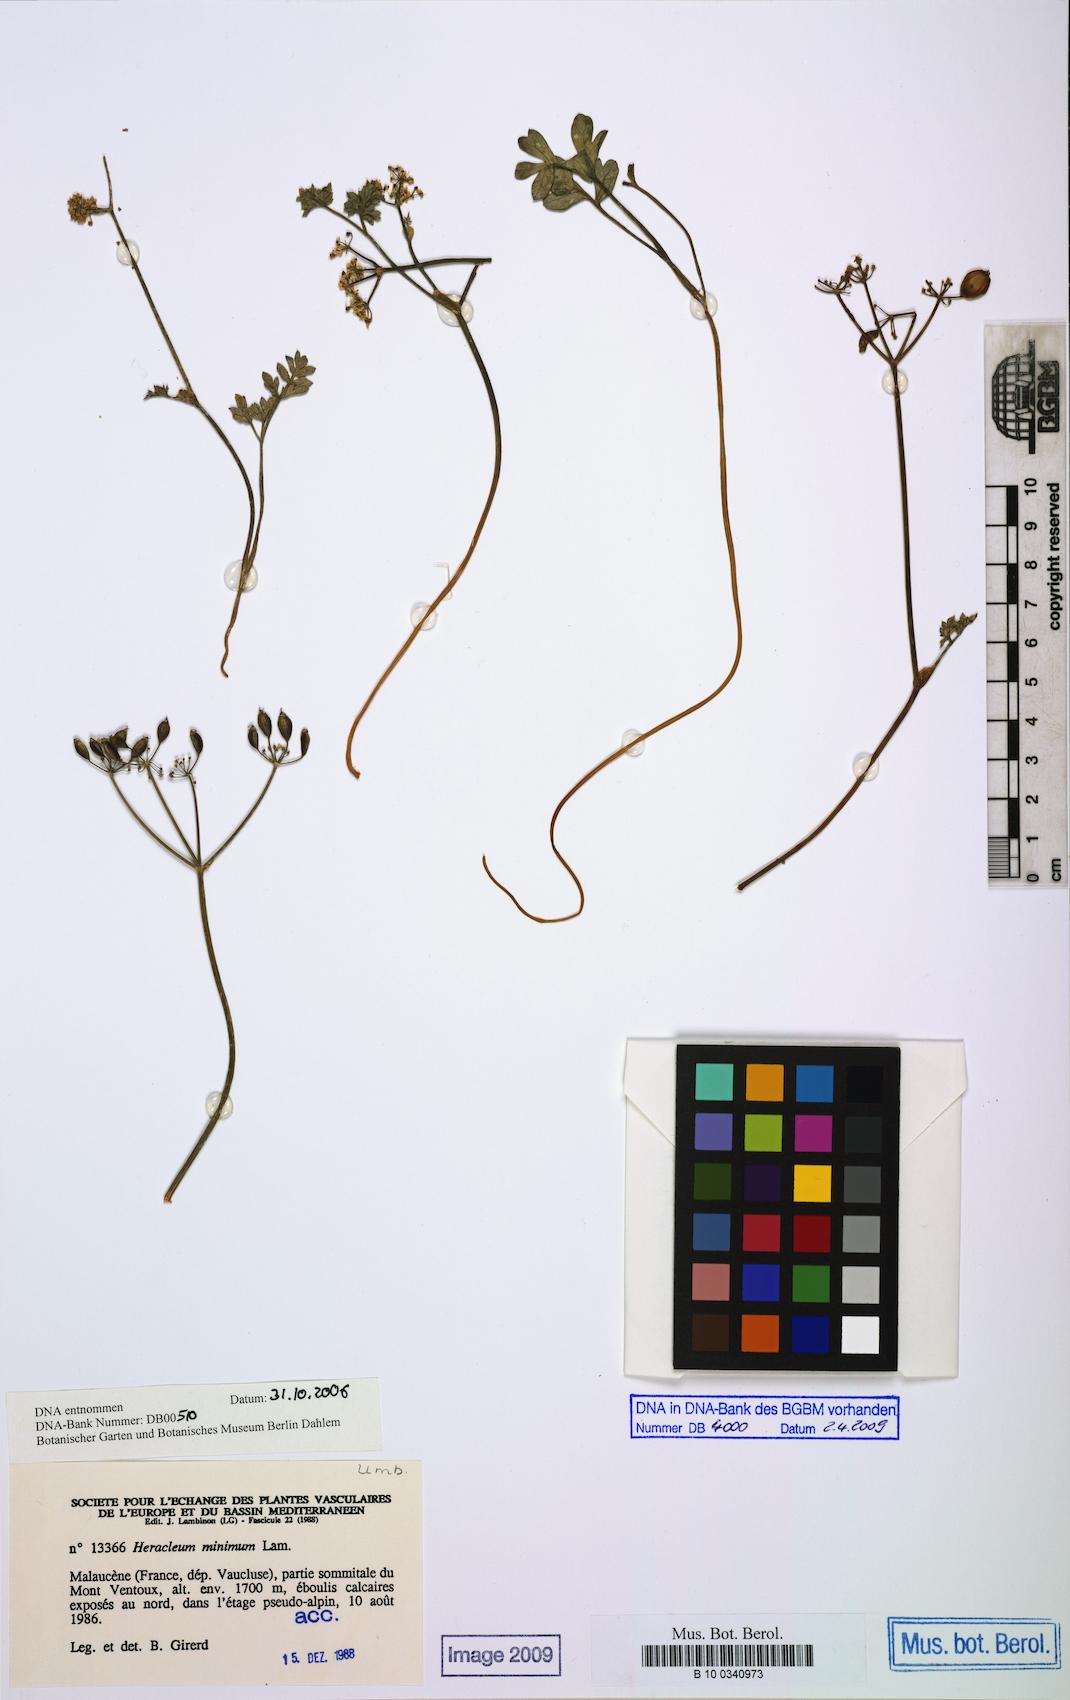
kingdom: Plantae
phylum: Tracheophyta
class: Magnoliopsida
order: Apiales
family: Apiaceae
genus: Heracleum
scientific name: Heracleum pumilum
